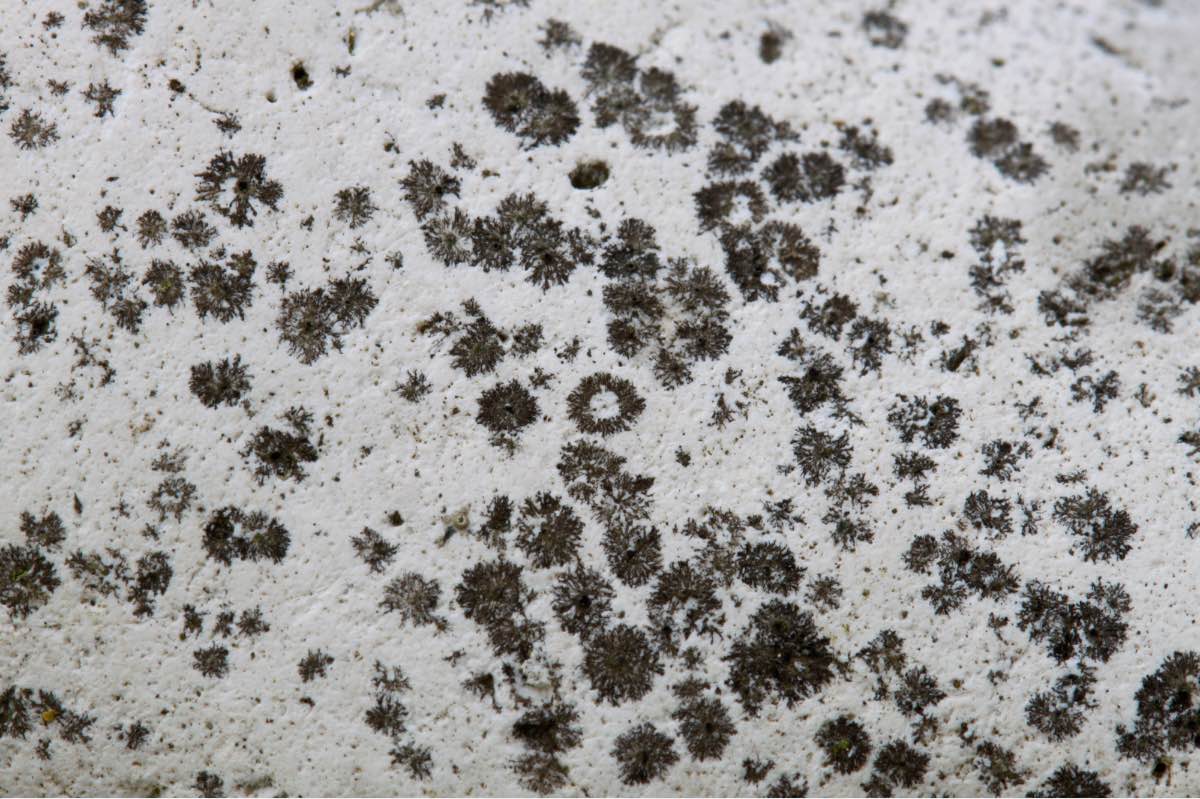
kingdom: Fungi
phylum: Ascomycota
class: Lecanoromycetes
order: Caliciales
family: Physciaceae
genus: Rinodina
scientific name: Rinodina oleae
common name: kyst-knaplav
